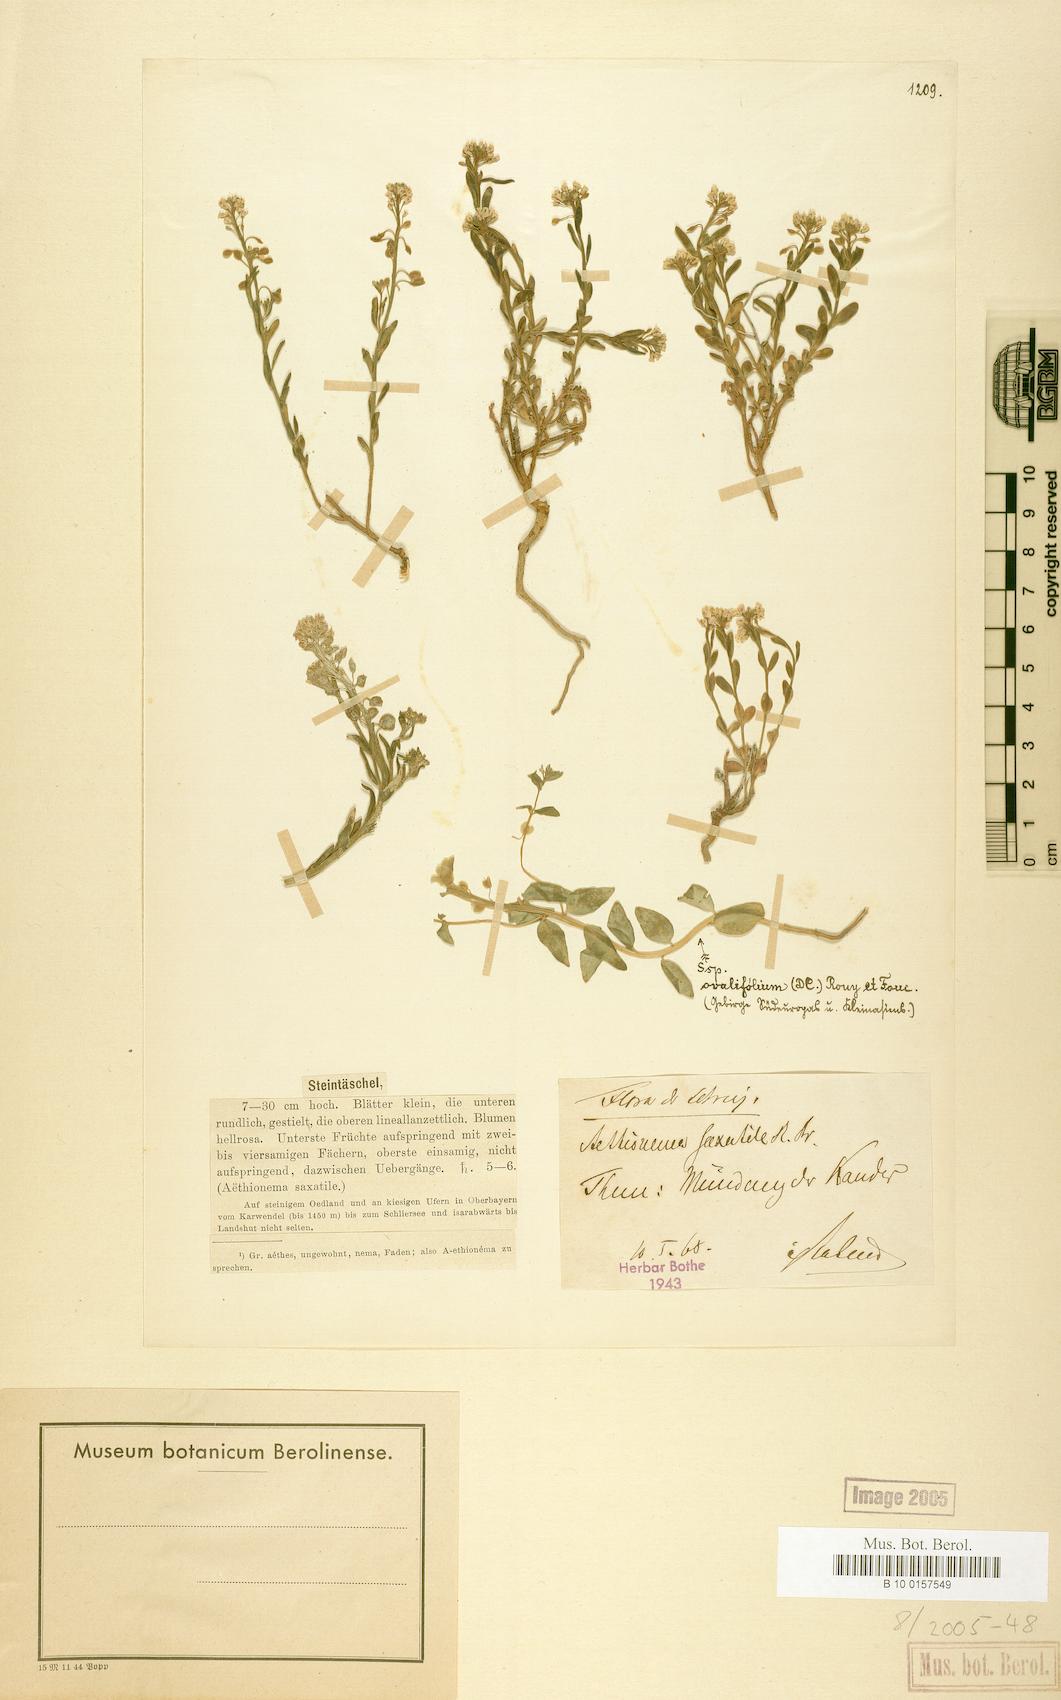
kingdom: Plantae
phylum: Tracheophyta
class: Magnoliopsida
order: Brassicales
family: Brassicaceae
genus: Aethionema
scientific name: Aethionema saxatile
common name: Burnt candytuft
